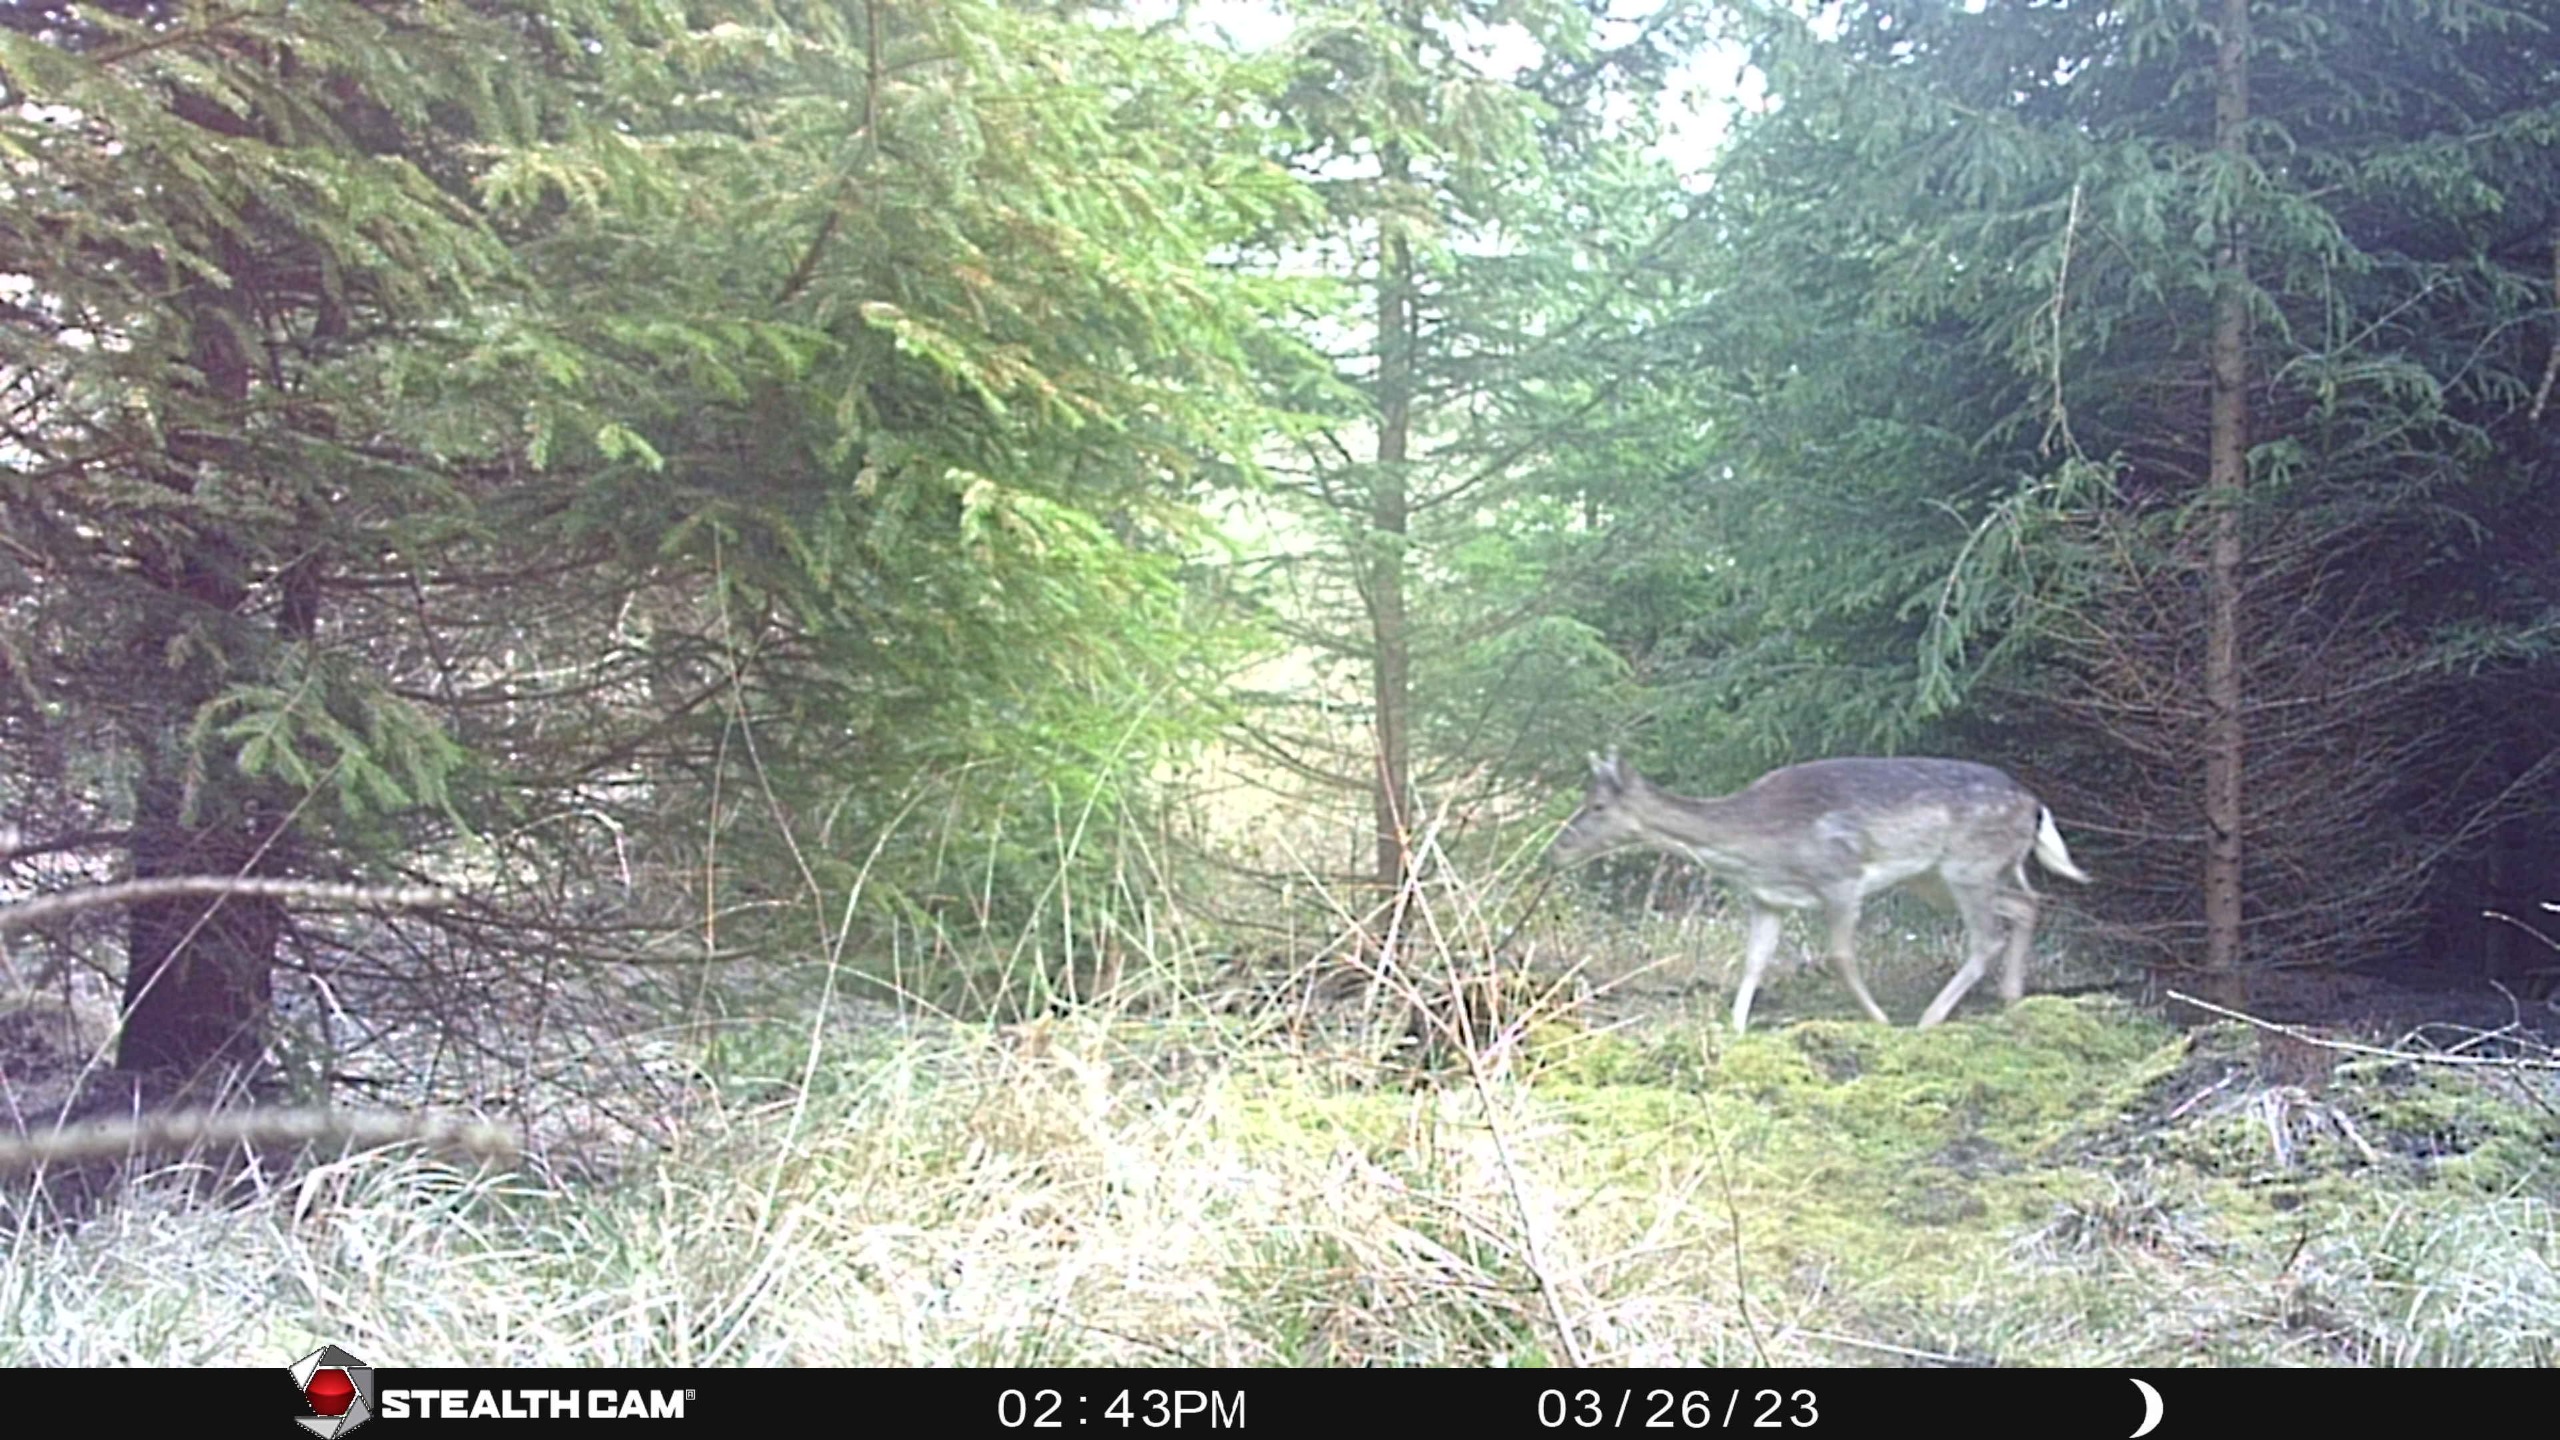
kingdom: Animalia
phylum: Chordata
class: Mammalia
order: Artiodactyla
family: Cervidae
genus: Dama
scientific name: Dama dama
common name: Dådyr
